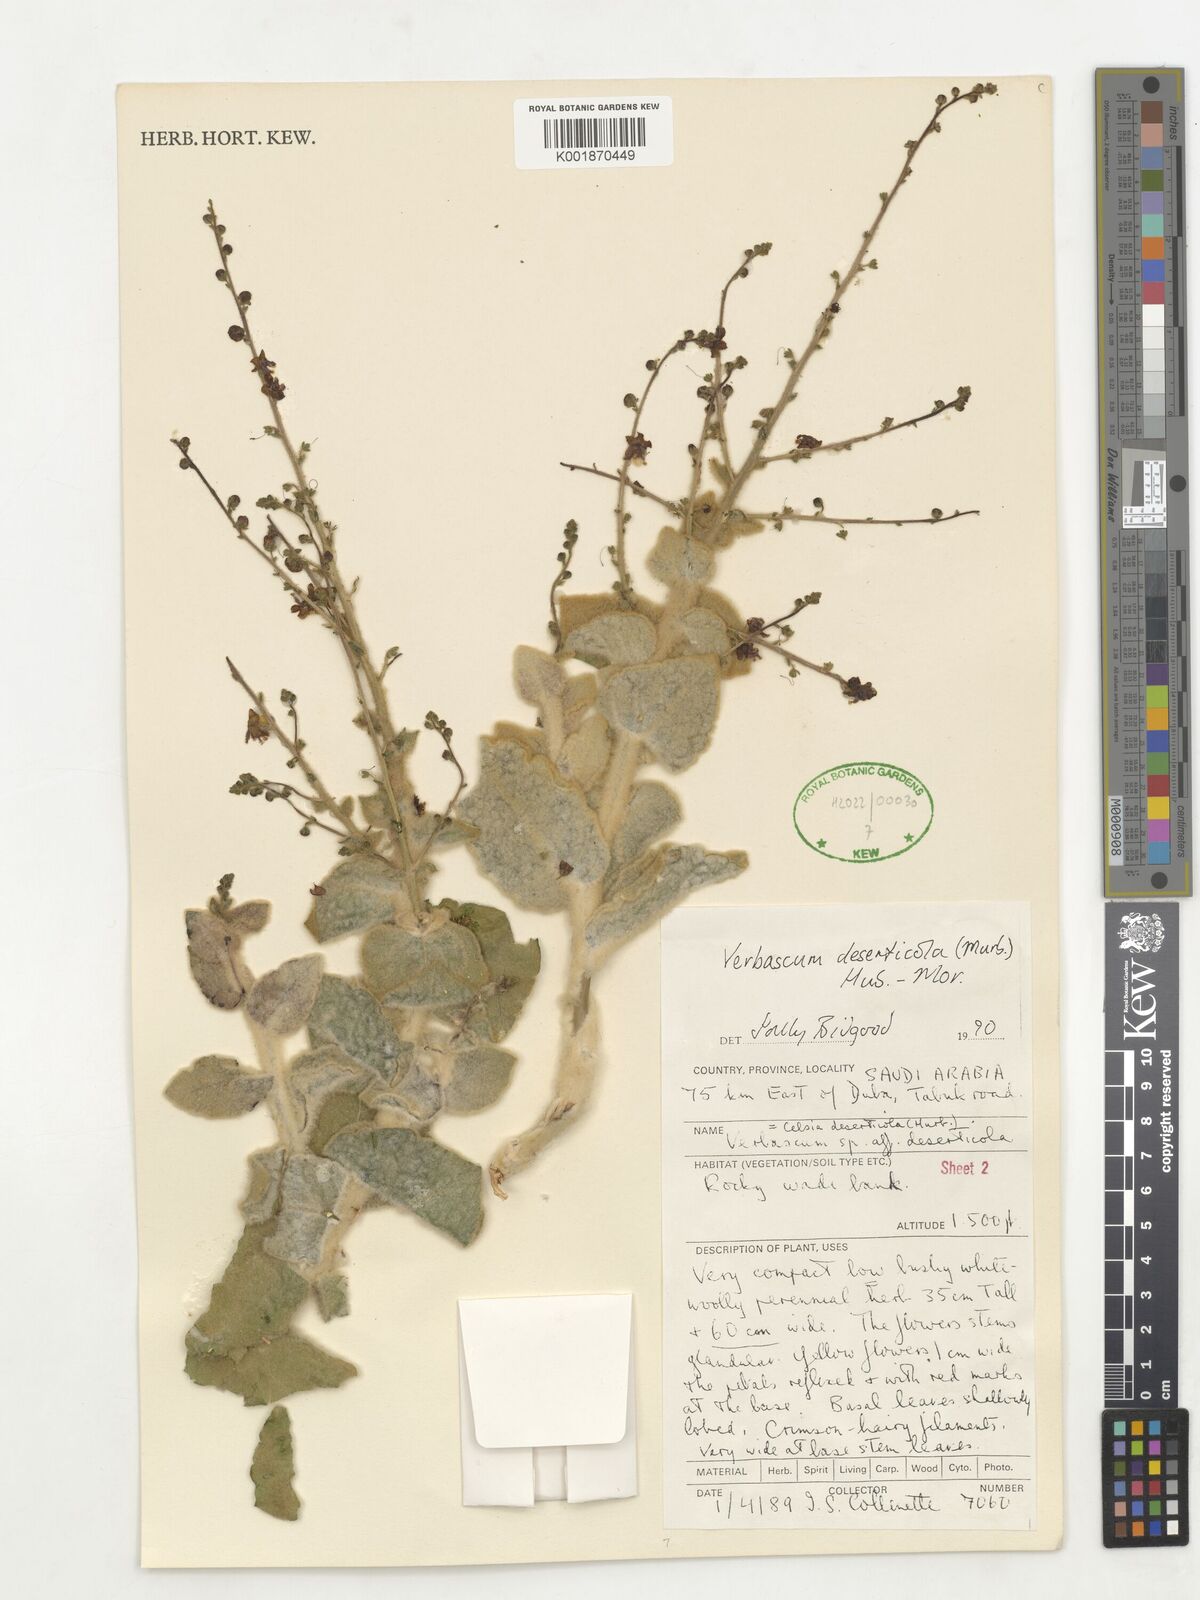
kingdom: Plantae
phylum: Tracheophyta
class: Magnoliopsida
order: Lamiales
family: Scrophulariaceae
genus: Verbascum
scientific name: Verbascum schimperianum
